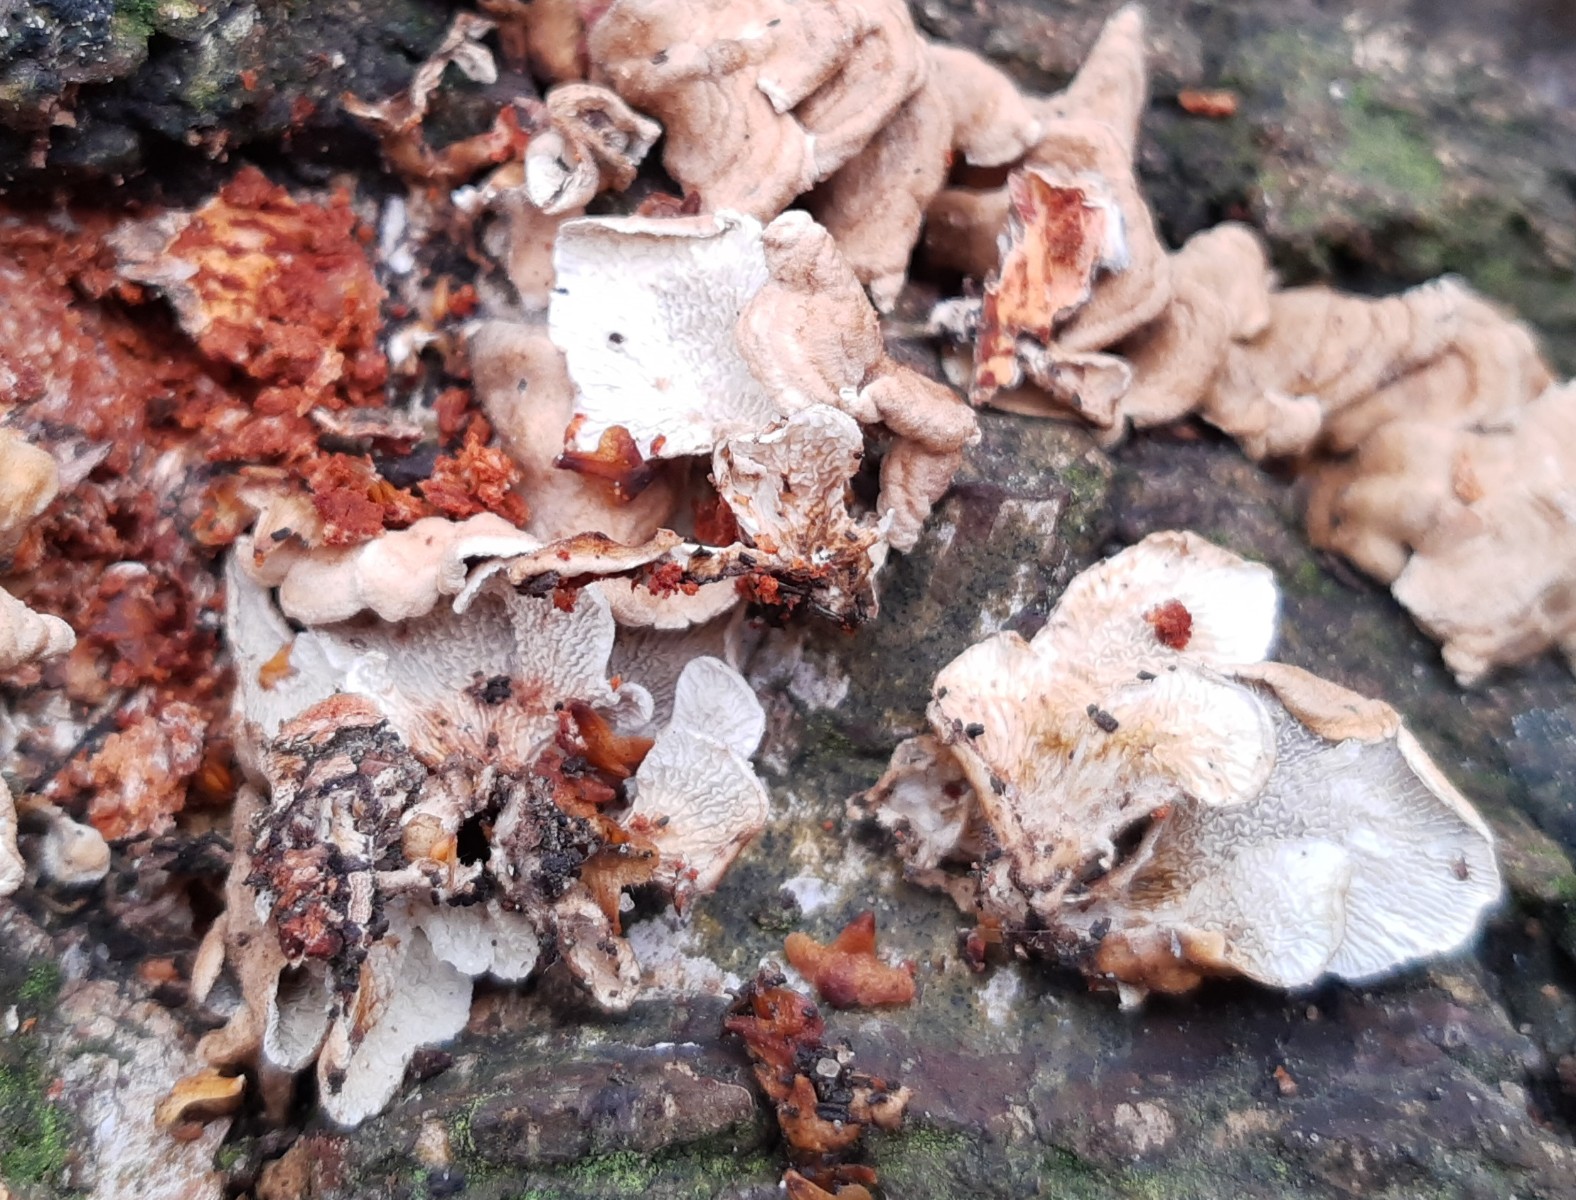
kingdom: Fungi
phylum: Basidiomycota
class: Agaricomycetes
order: Amylocorticiales
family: Amylocorticiaceae
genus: Plicaturopsis
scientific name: Plicaturopsis crispa
